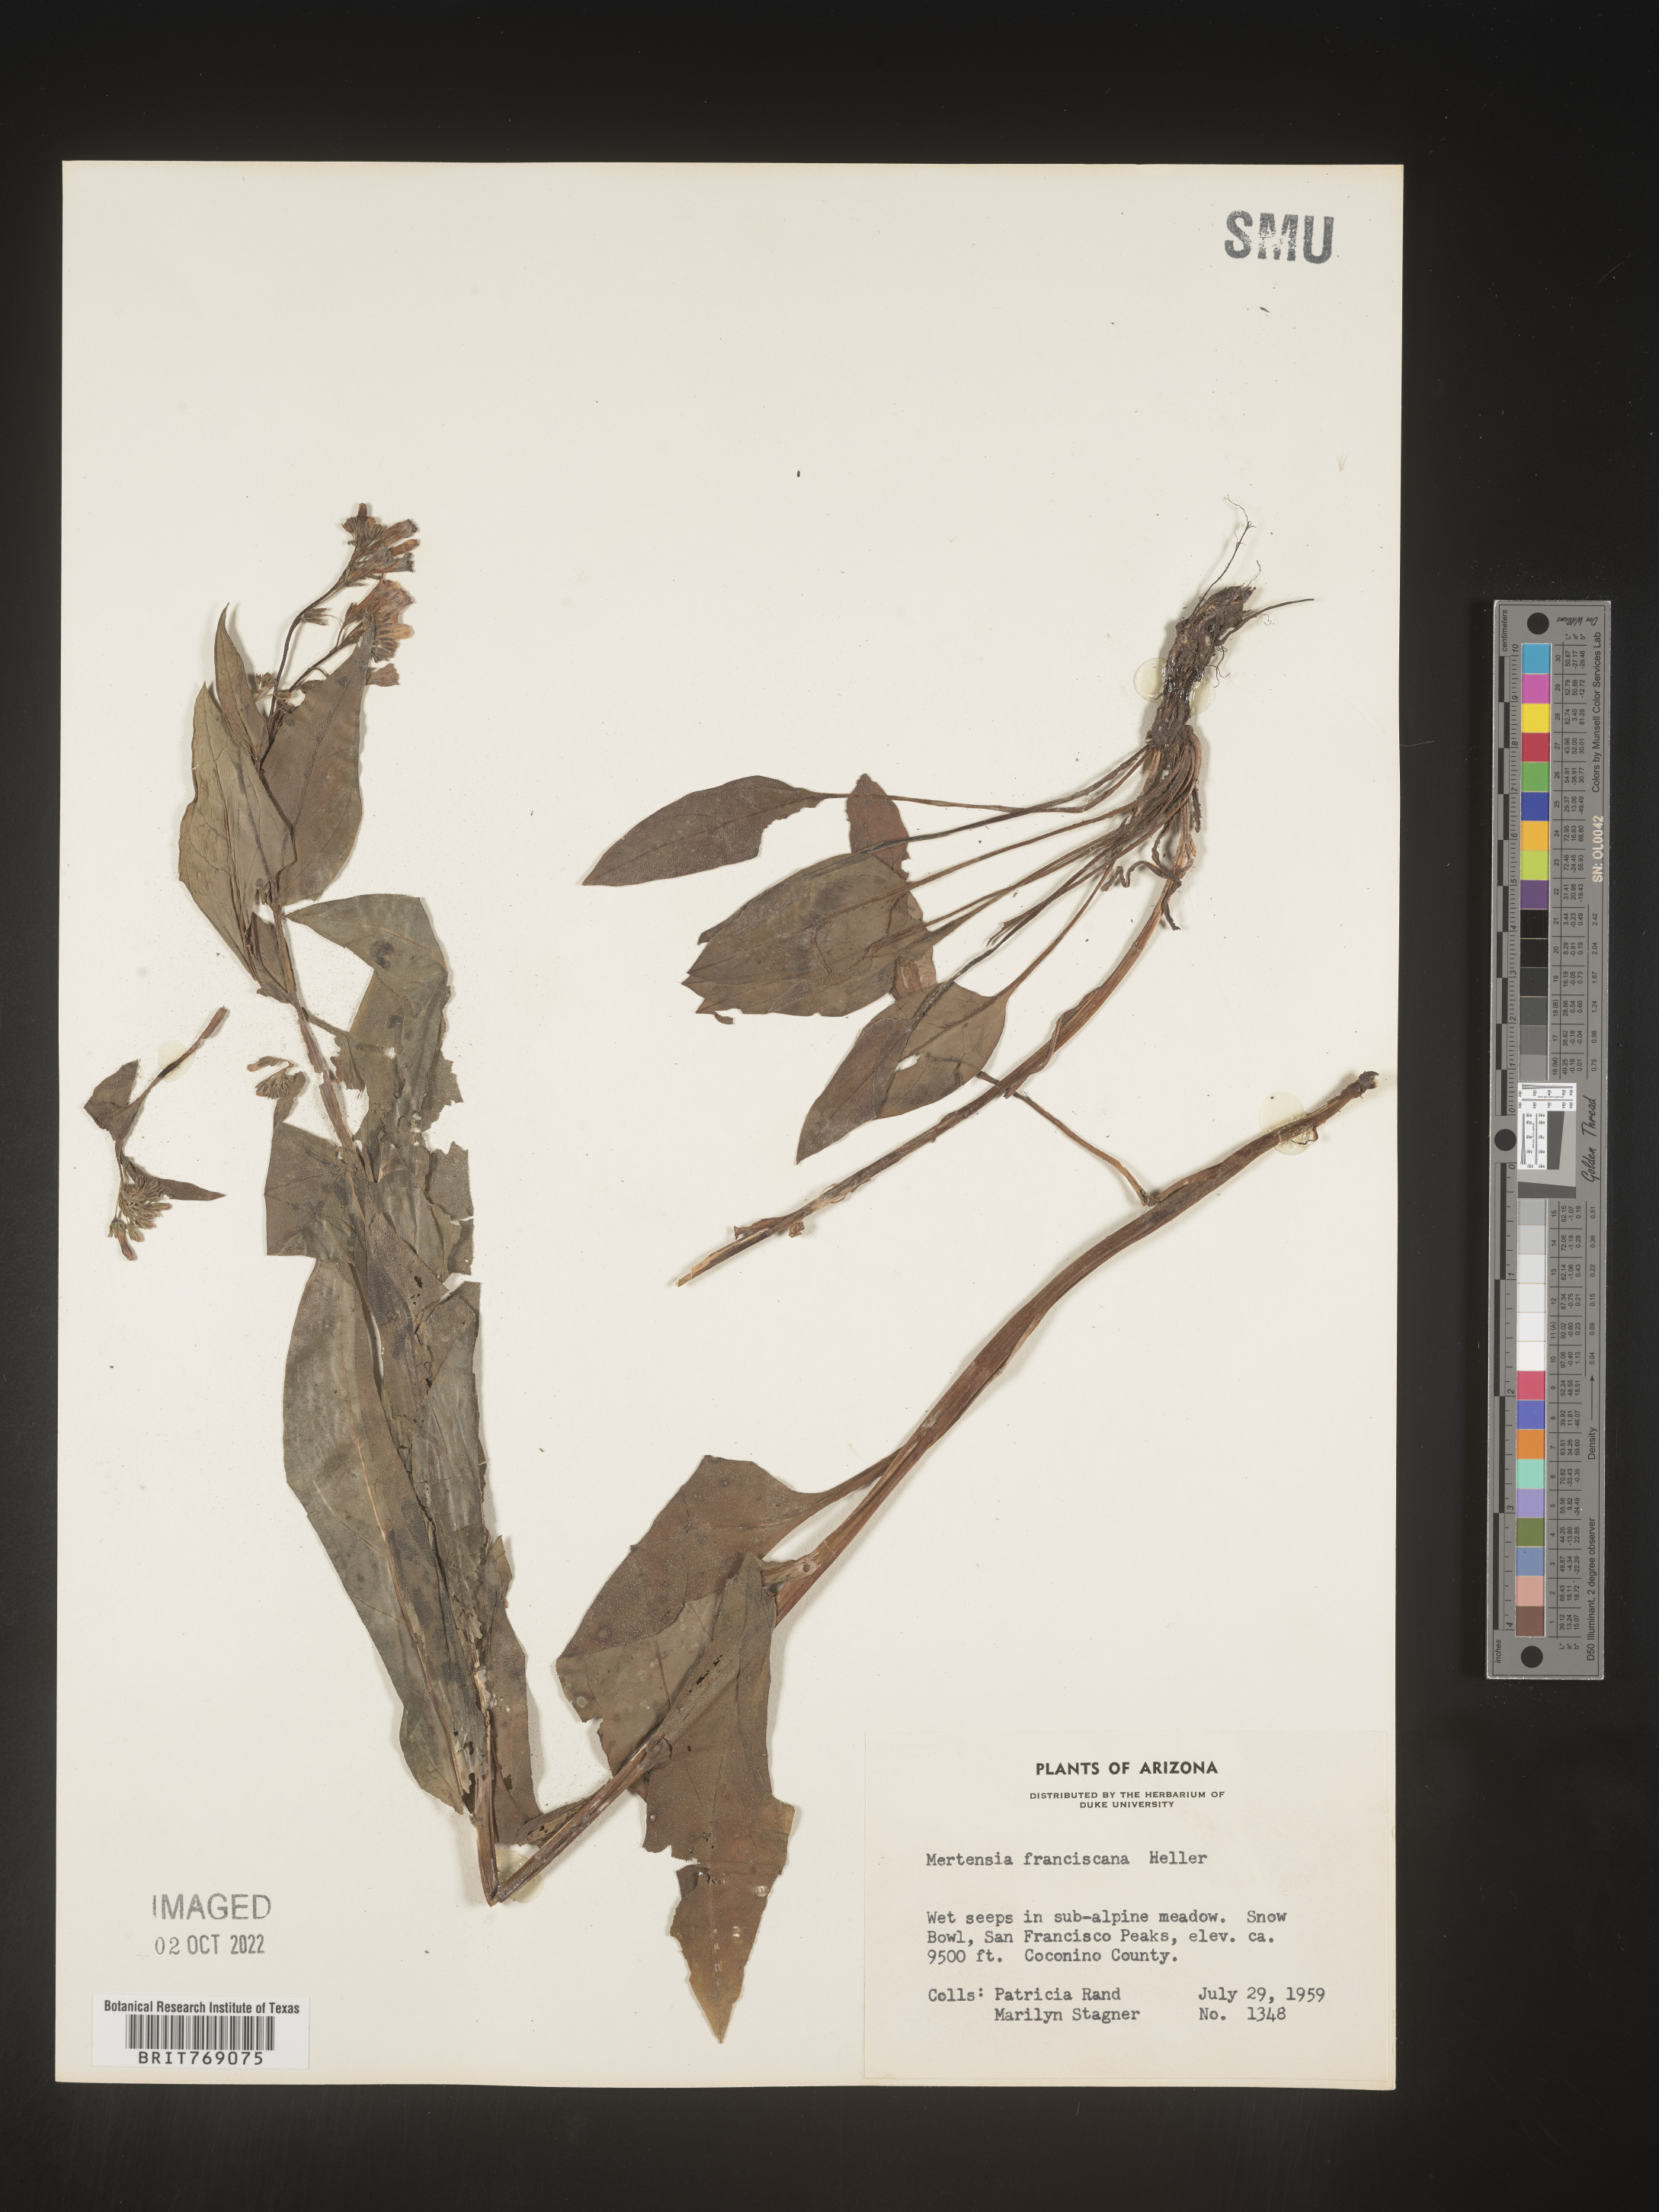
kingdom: Plantae
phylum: Tracheophyta
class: Magnoliopsida
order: Boraginales
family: Boraginaceae
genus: Mertensia
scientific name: Mertensia
